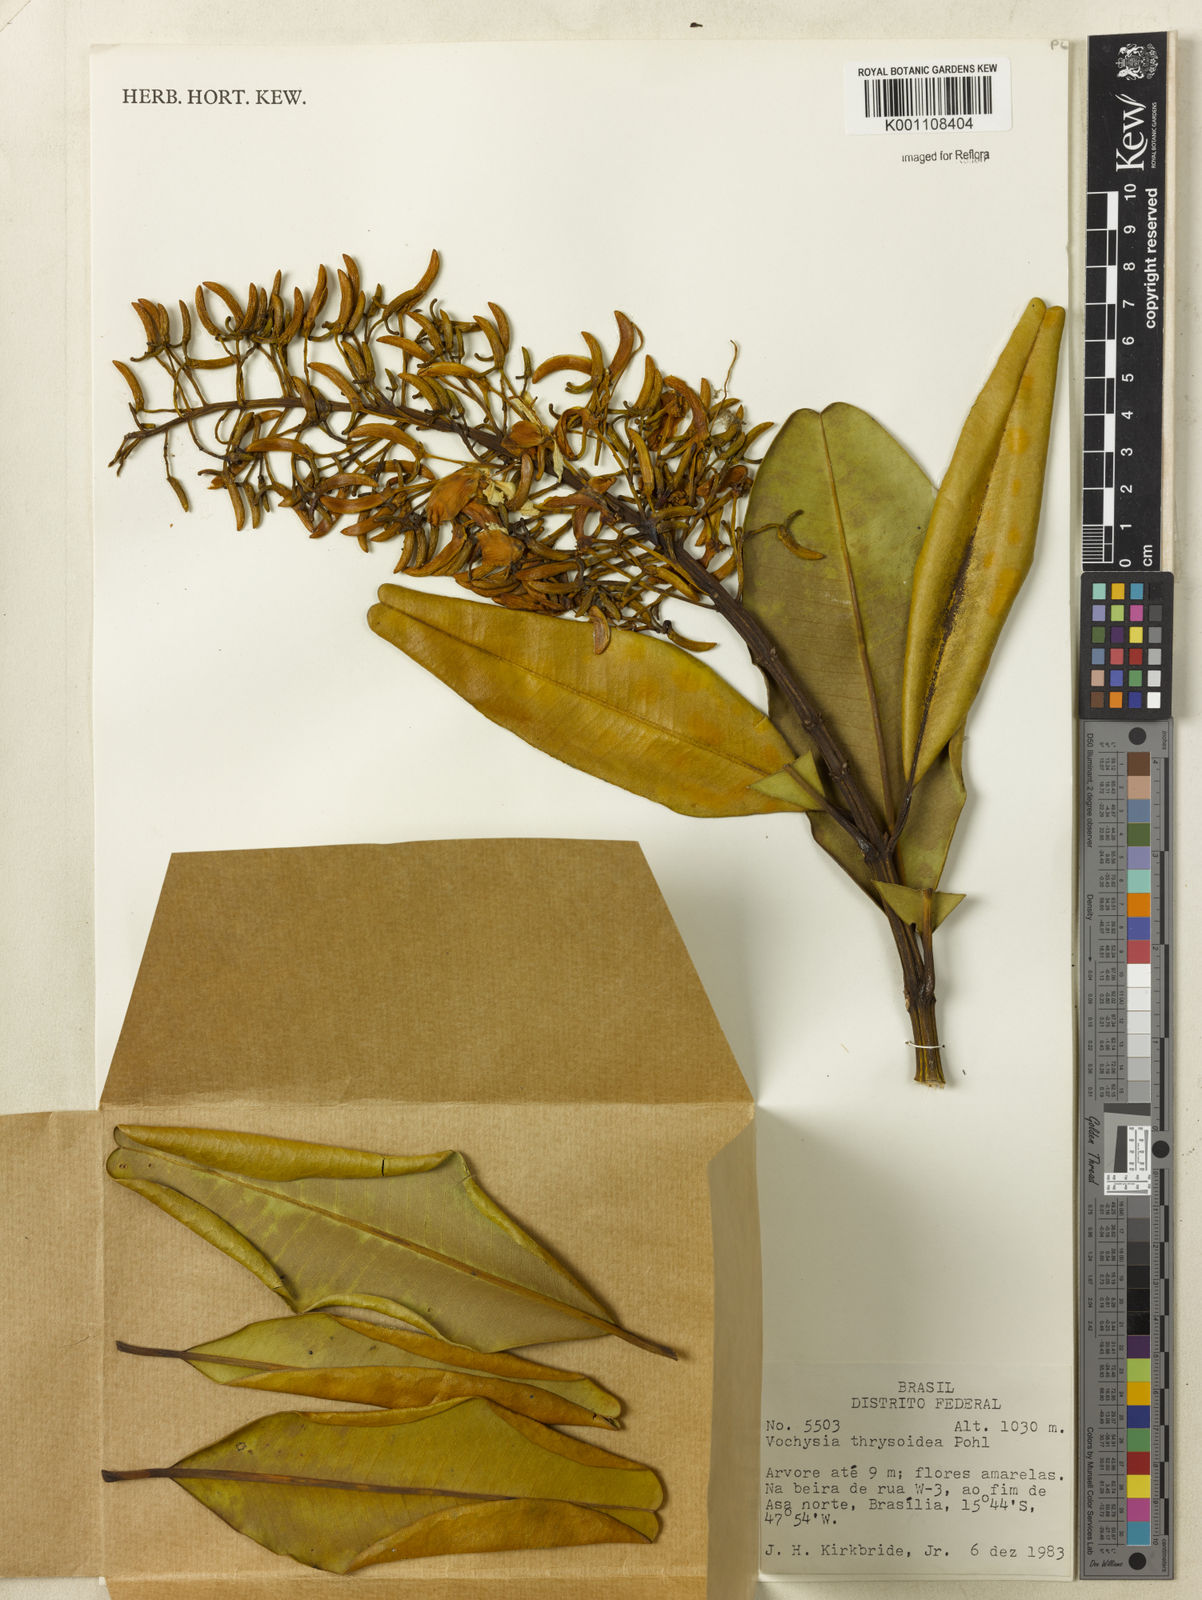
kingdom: Plantae
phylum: Tracheophyta
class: Magnoliopsida
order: Myrtales
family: Vochysiaceae
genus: Vochysia
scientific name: Vochysia thyrsoidea
